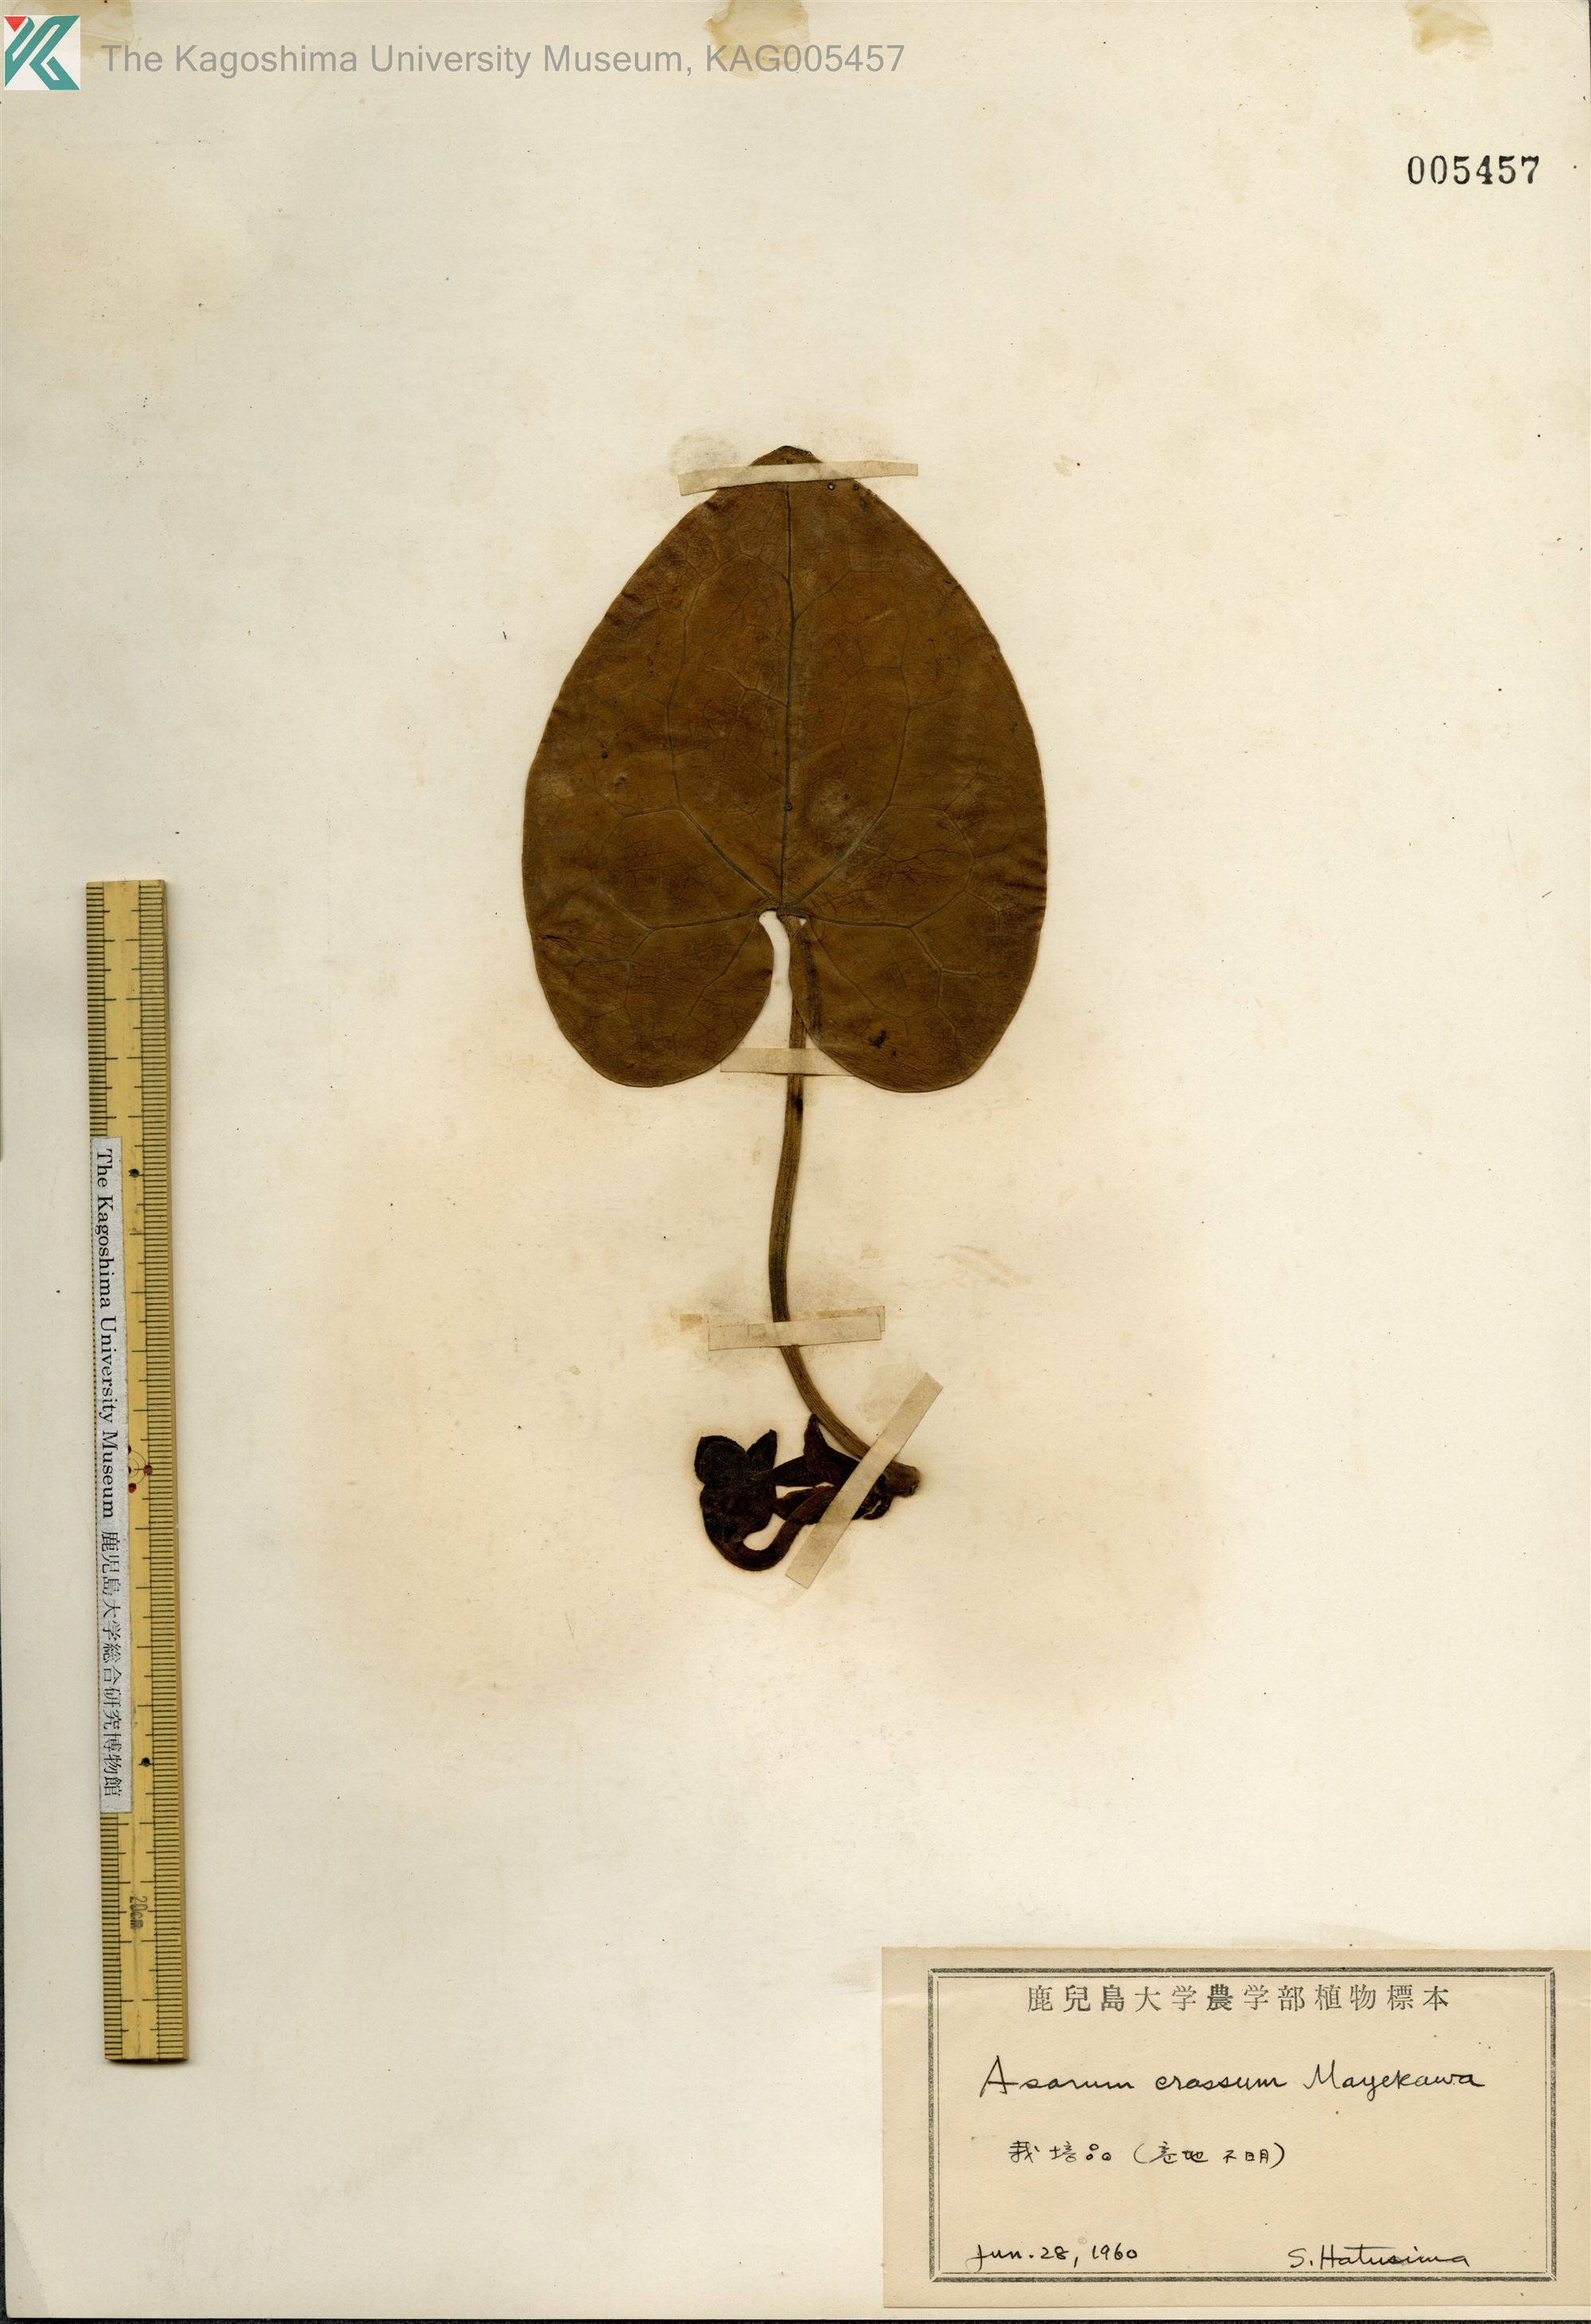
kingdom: Plantae
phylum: Tracheophyta
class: Magnoliopsida
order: Piperales
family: Aristolochiaceae
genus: Asarum
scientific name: Asarum crassum
